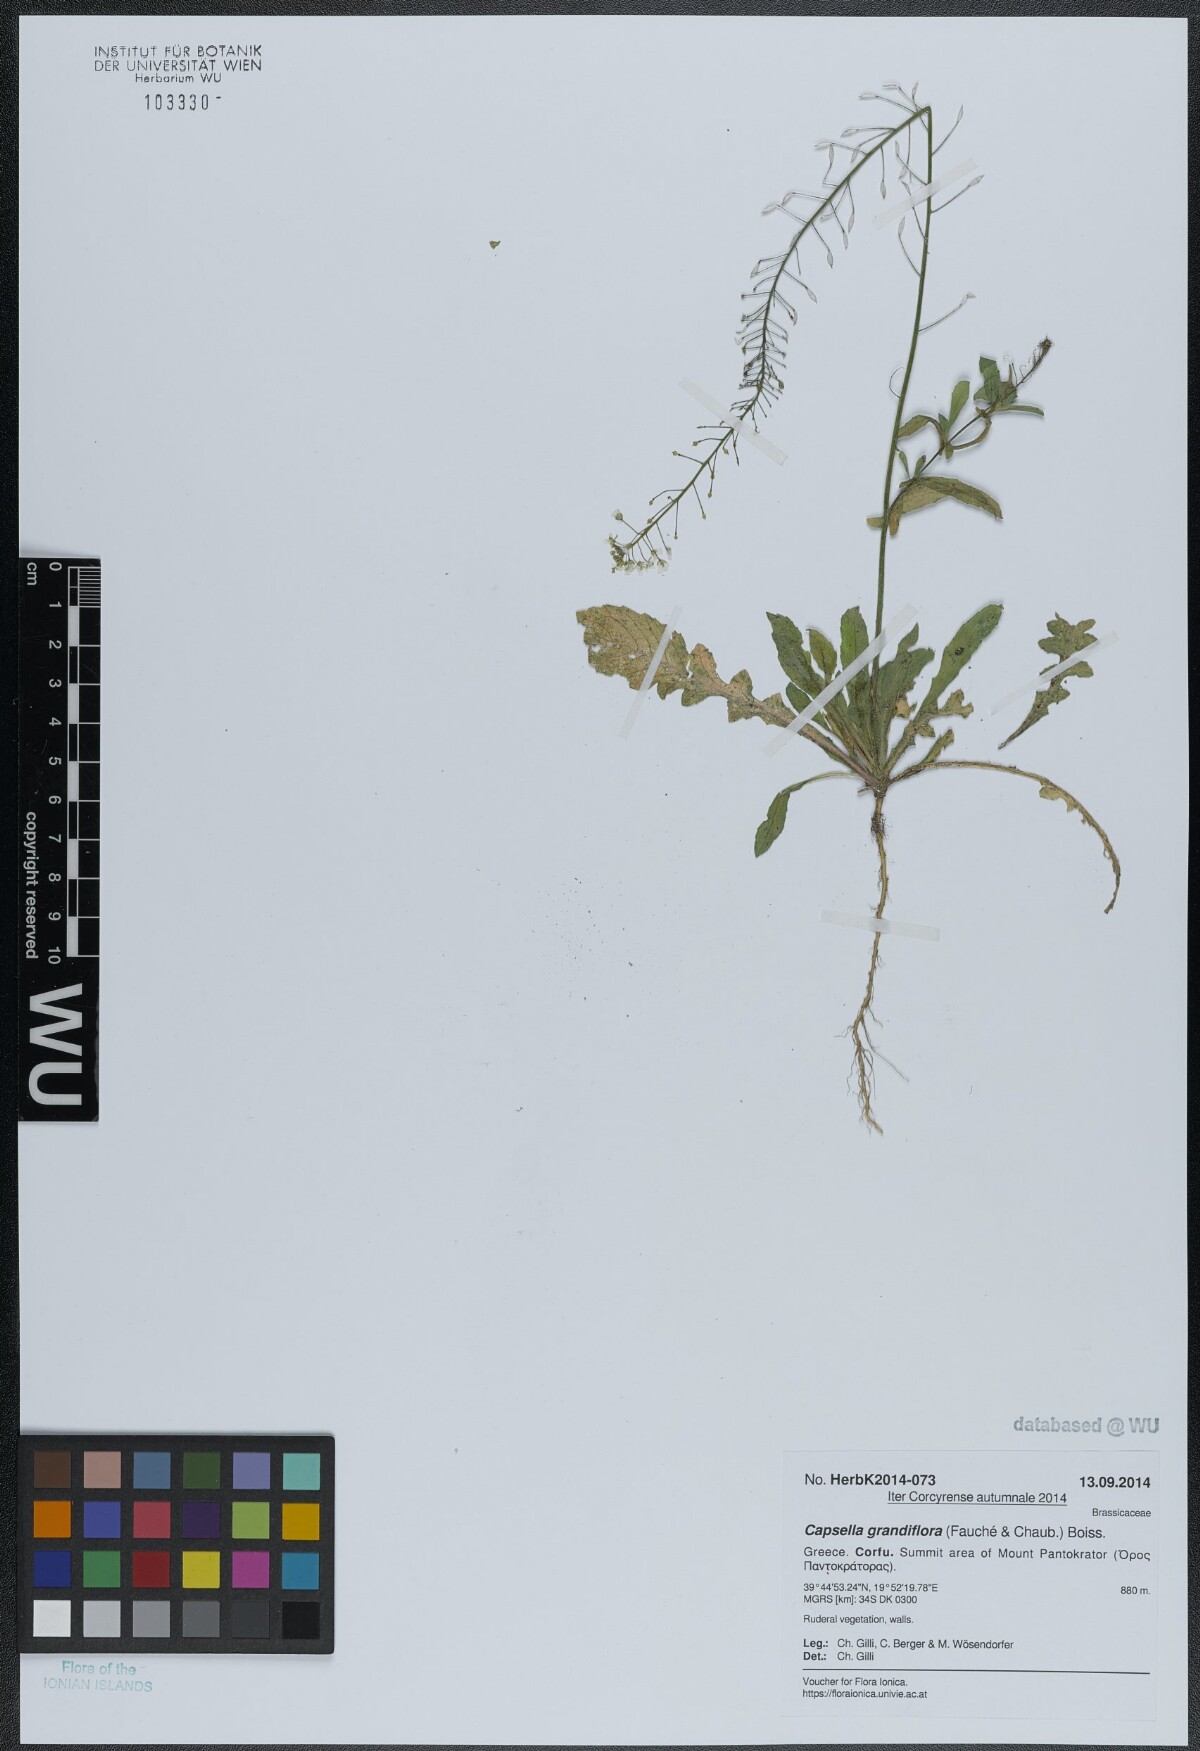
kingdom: Plantae
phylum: Tracheophyta
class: Magnoliopsida
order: Brassicales
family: Brassicaceae
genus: Capsella
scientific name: Capsella grandiflora
